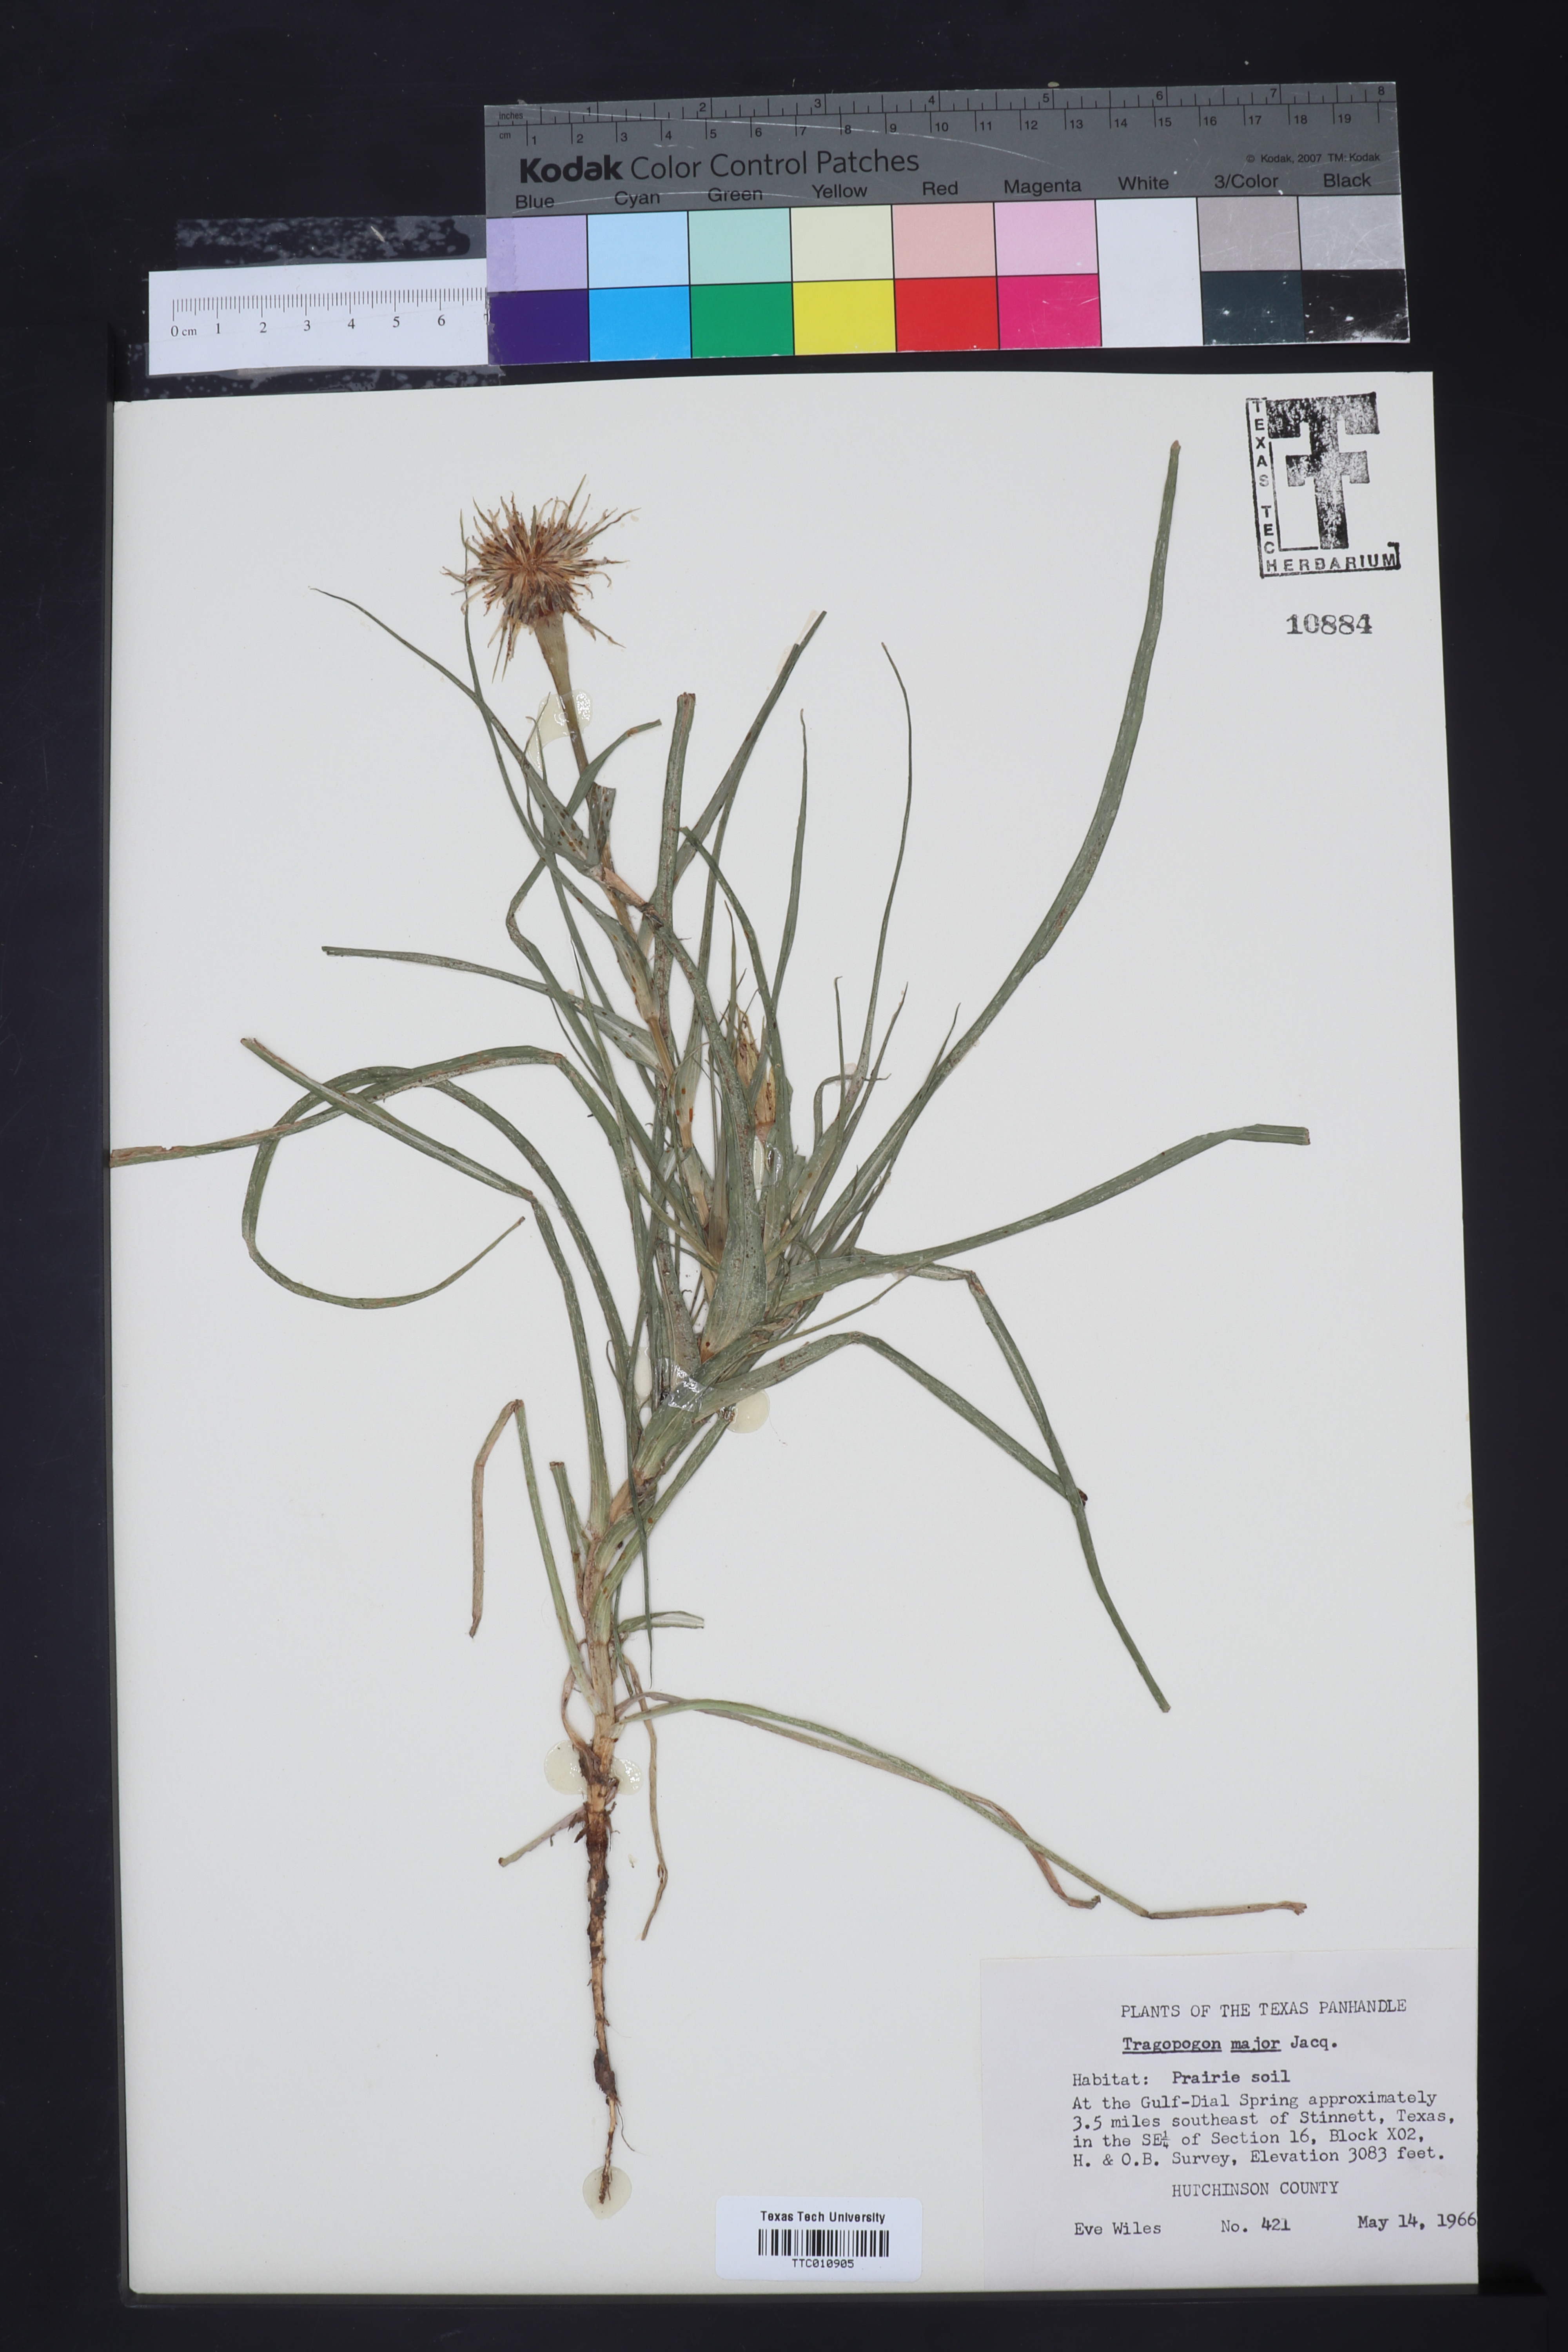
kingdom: Plantae
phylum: Tracheophyta
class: Magnoliopsida
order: Asterales
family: Asteraceae
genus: Tragopogon
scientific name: Tragopogon dubius
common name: Yellow salsify
